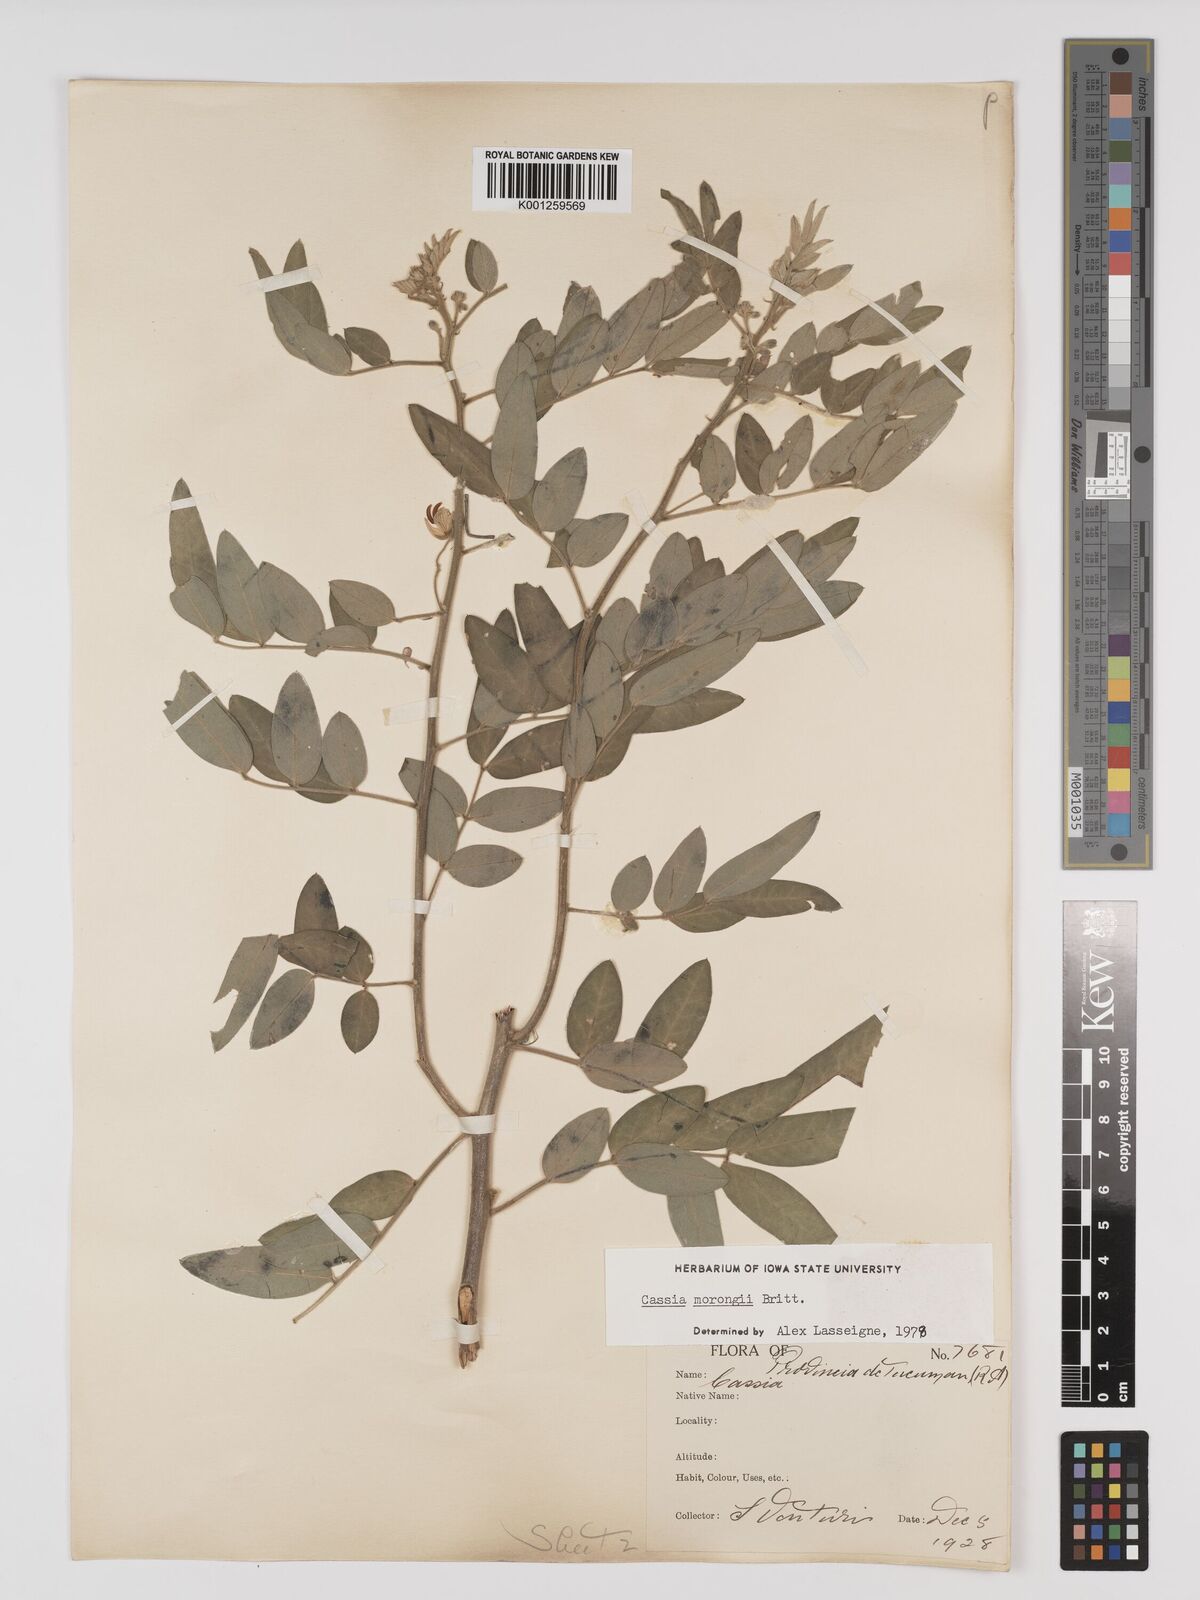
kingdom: Plantae
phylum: Tracheophyta
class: Magnoliopsida
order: Fabales
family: Fabaceae
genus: Senna
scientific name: Senna morongii
